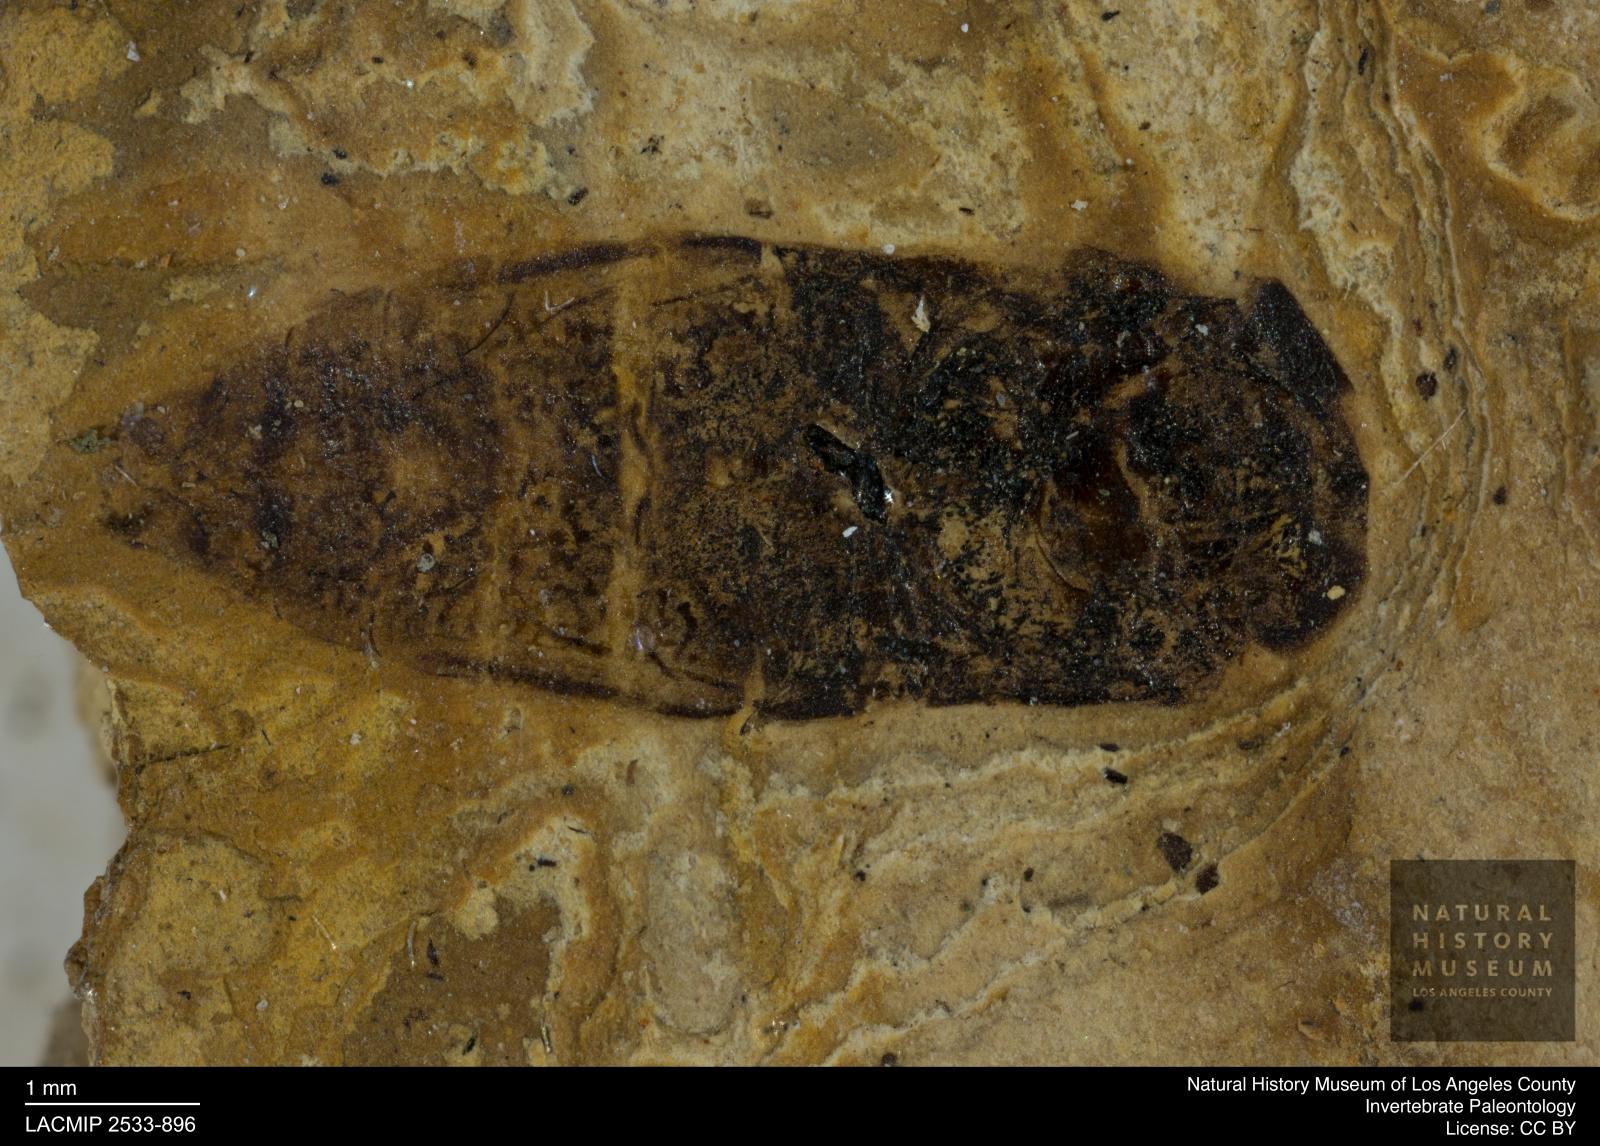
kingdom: Animalia
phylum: Arthropoda
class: Insecta
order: Hemiptera
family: Corixidae
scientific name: Corixidae
